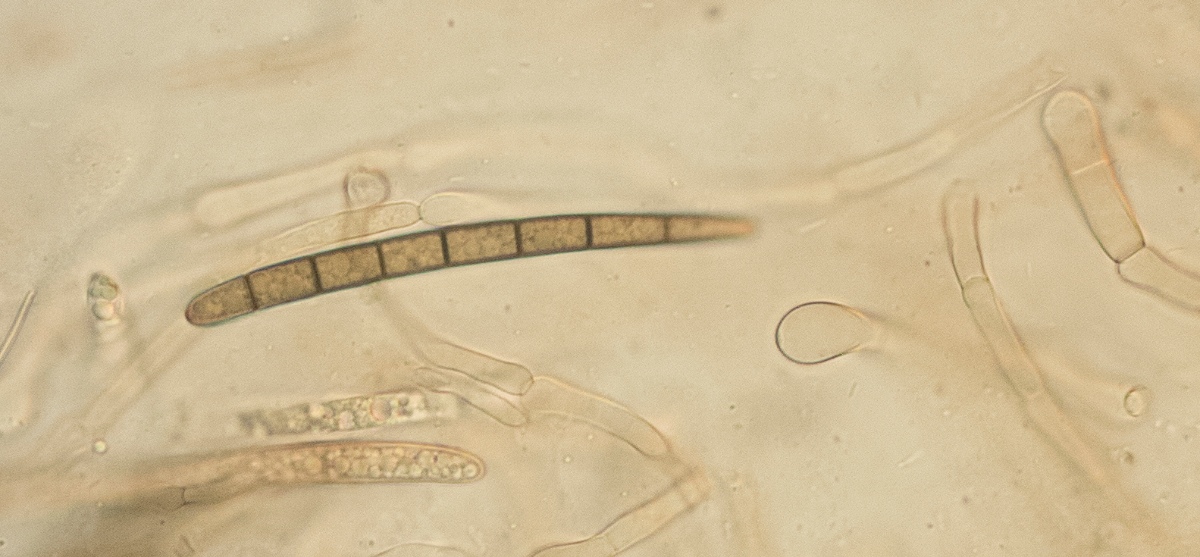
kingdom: Fungi
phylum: Ascomycota
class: Geoglossomycetes
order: Geoglossales
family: Geoglossaceae
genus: Glutinoglossum
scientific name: Glutinoglossum heptaseptatum
